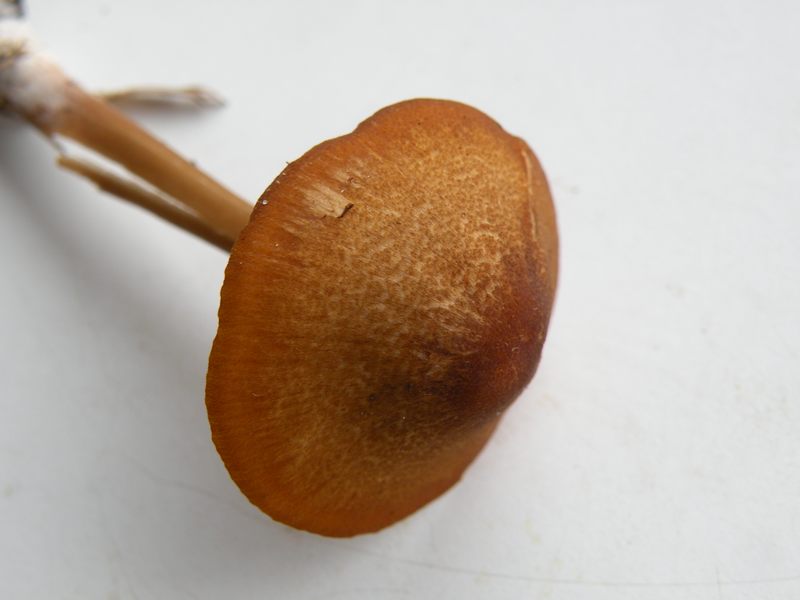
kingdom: Fungi
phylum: Basidiomycota
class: Agaricomycetes
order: Agaricales
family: Entolomataceae
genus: Entoloma
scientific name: Entoloma formosum
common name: brungul rødblad
